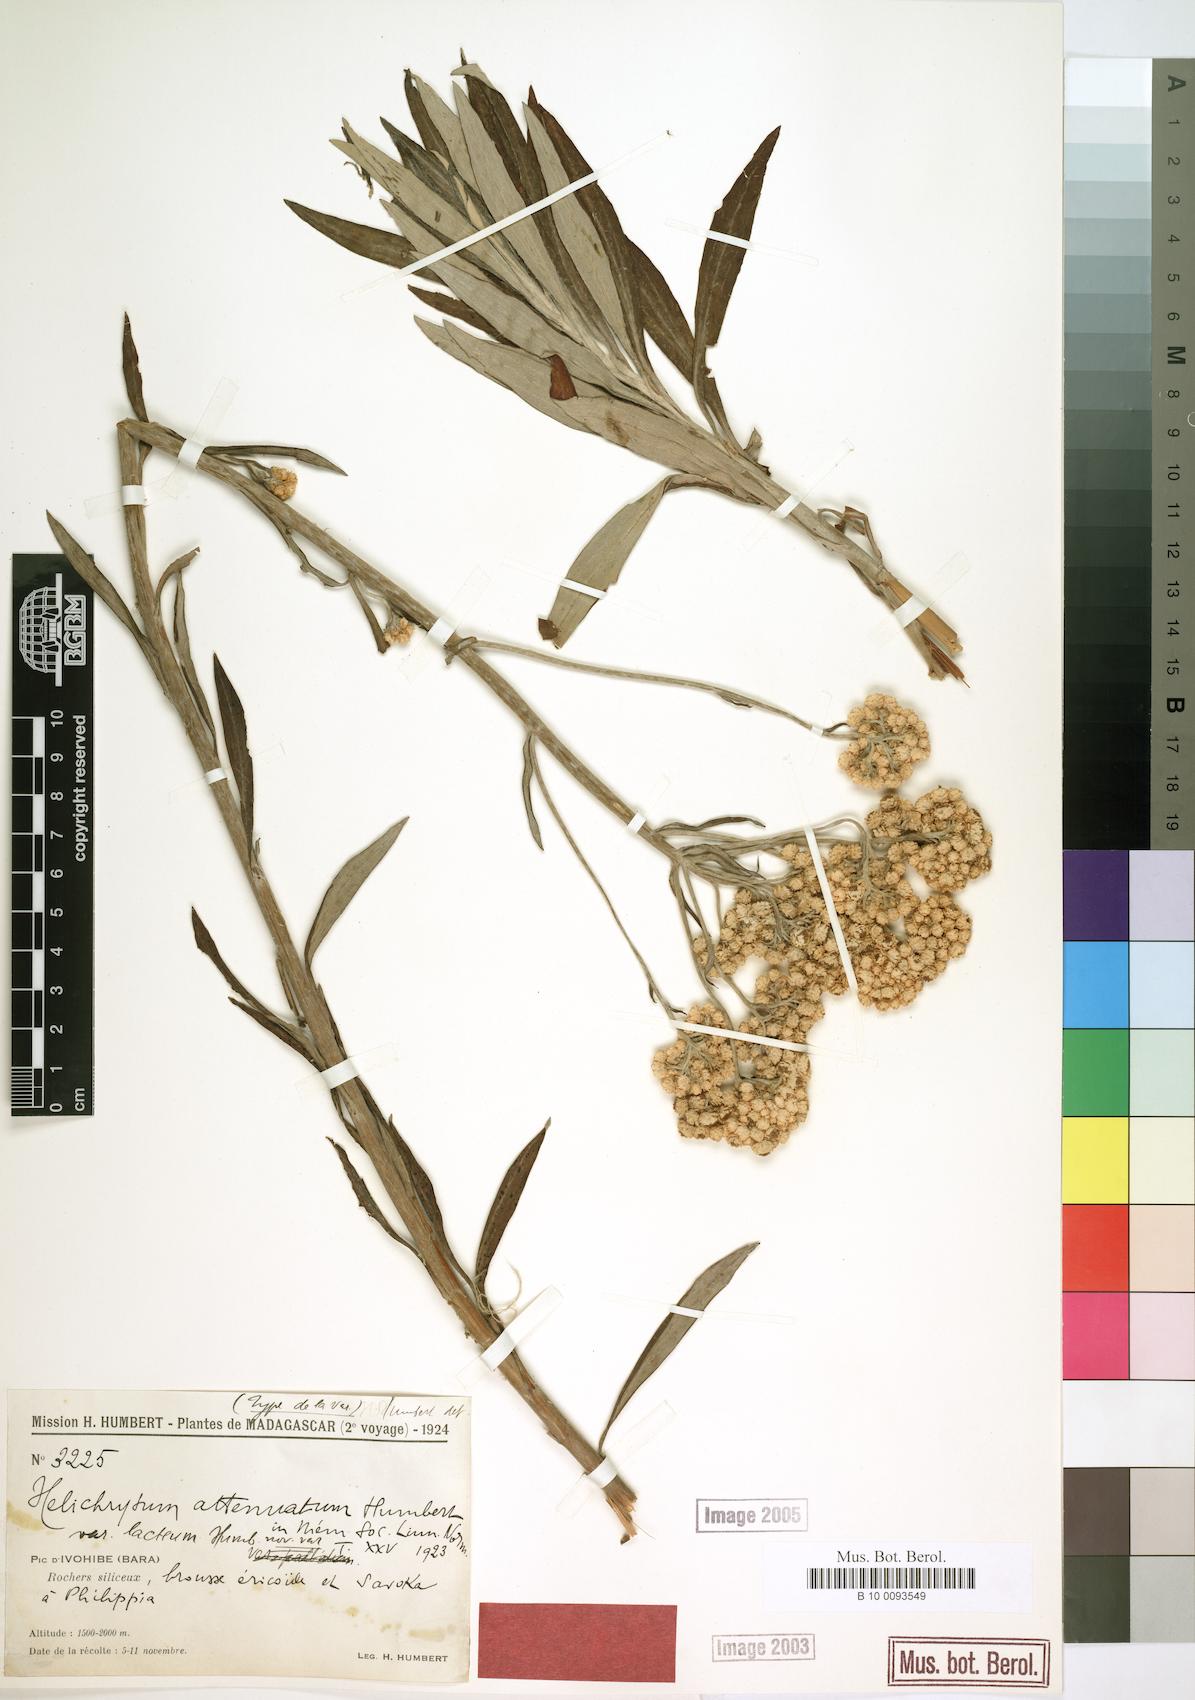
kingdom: Plantae
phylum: Tracheophyta
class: Magnoliopsida
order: Asterales
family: Asteraceae
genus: Helichrysum
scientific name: Helichrysum attenuatum
